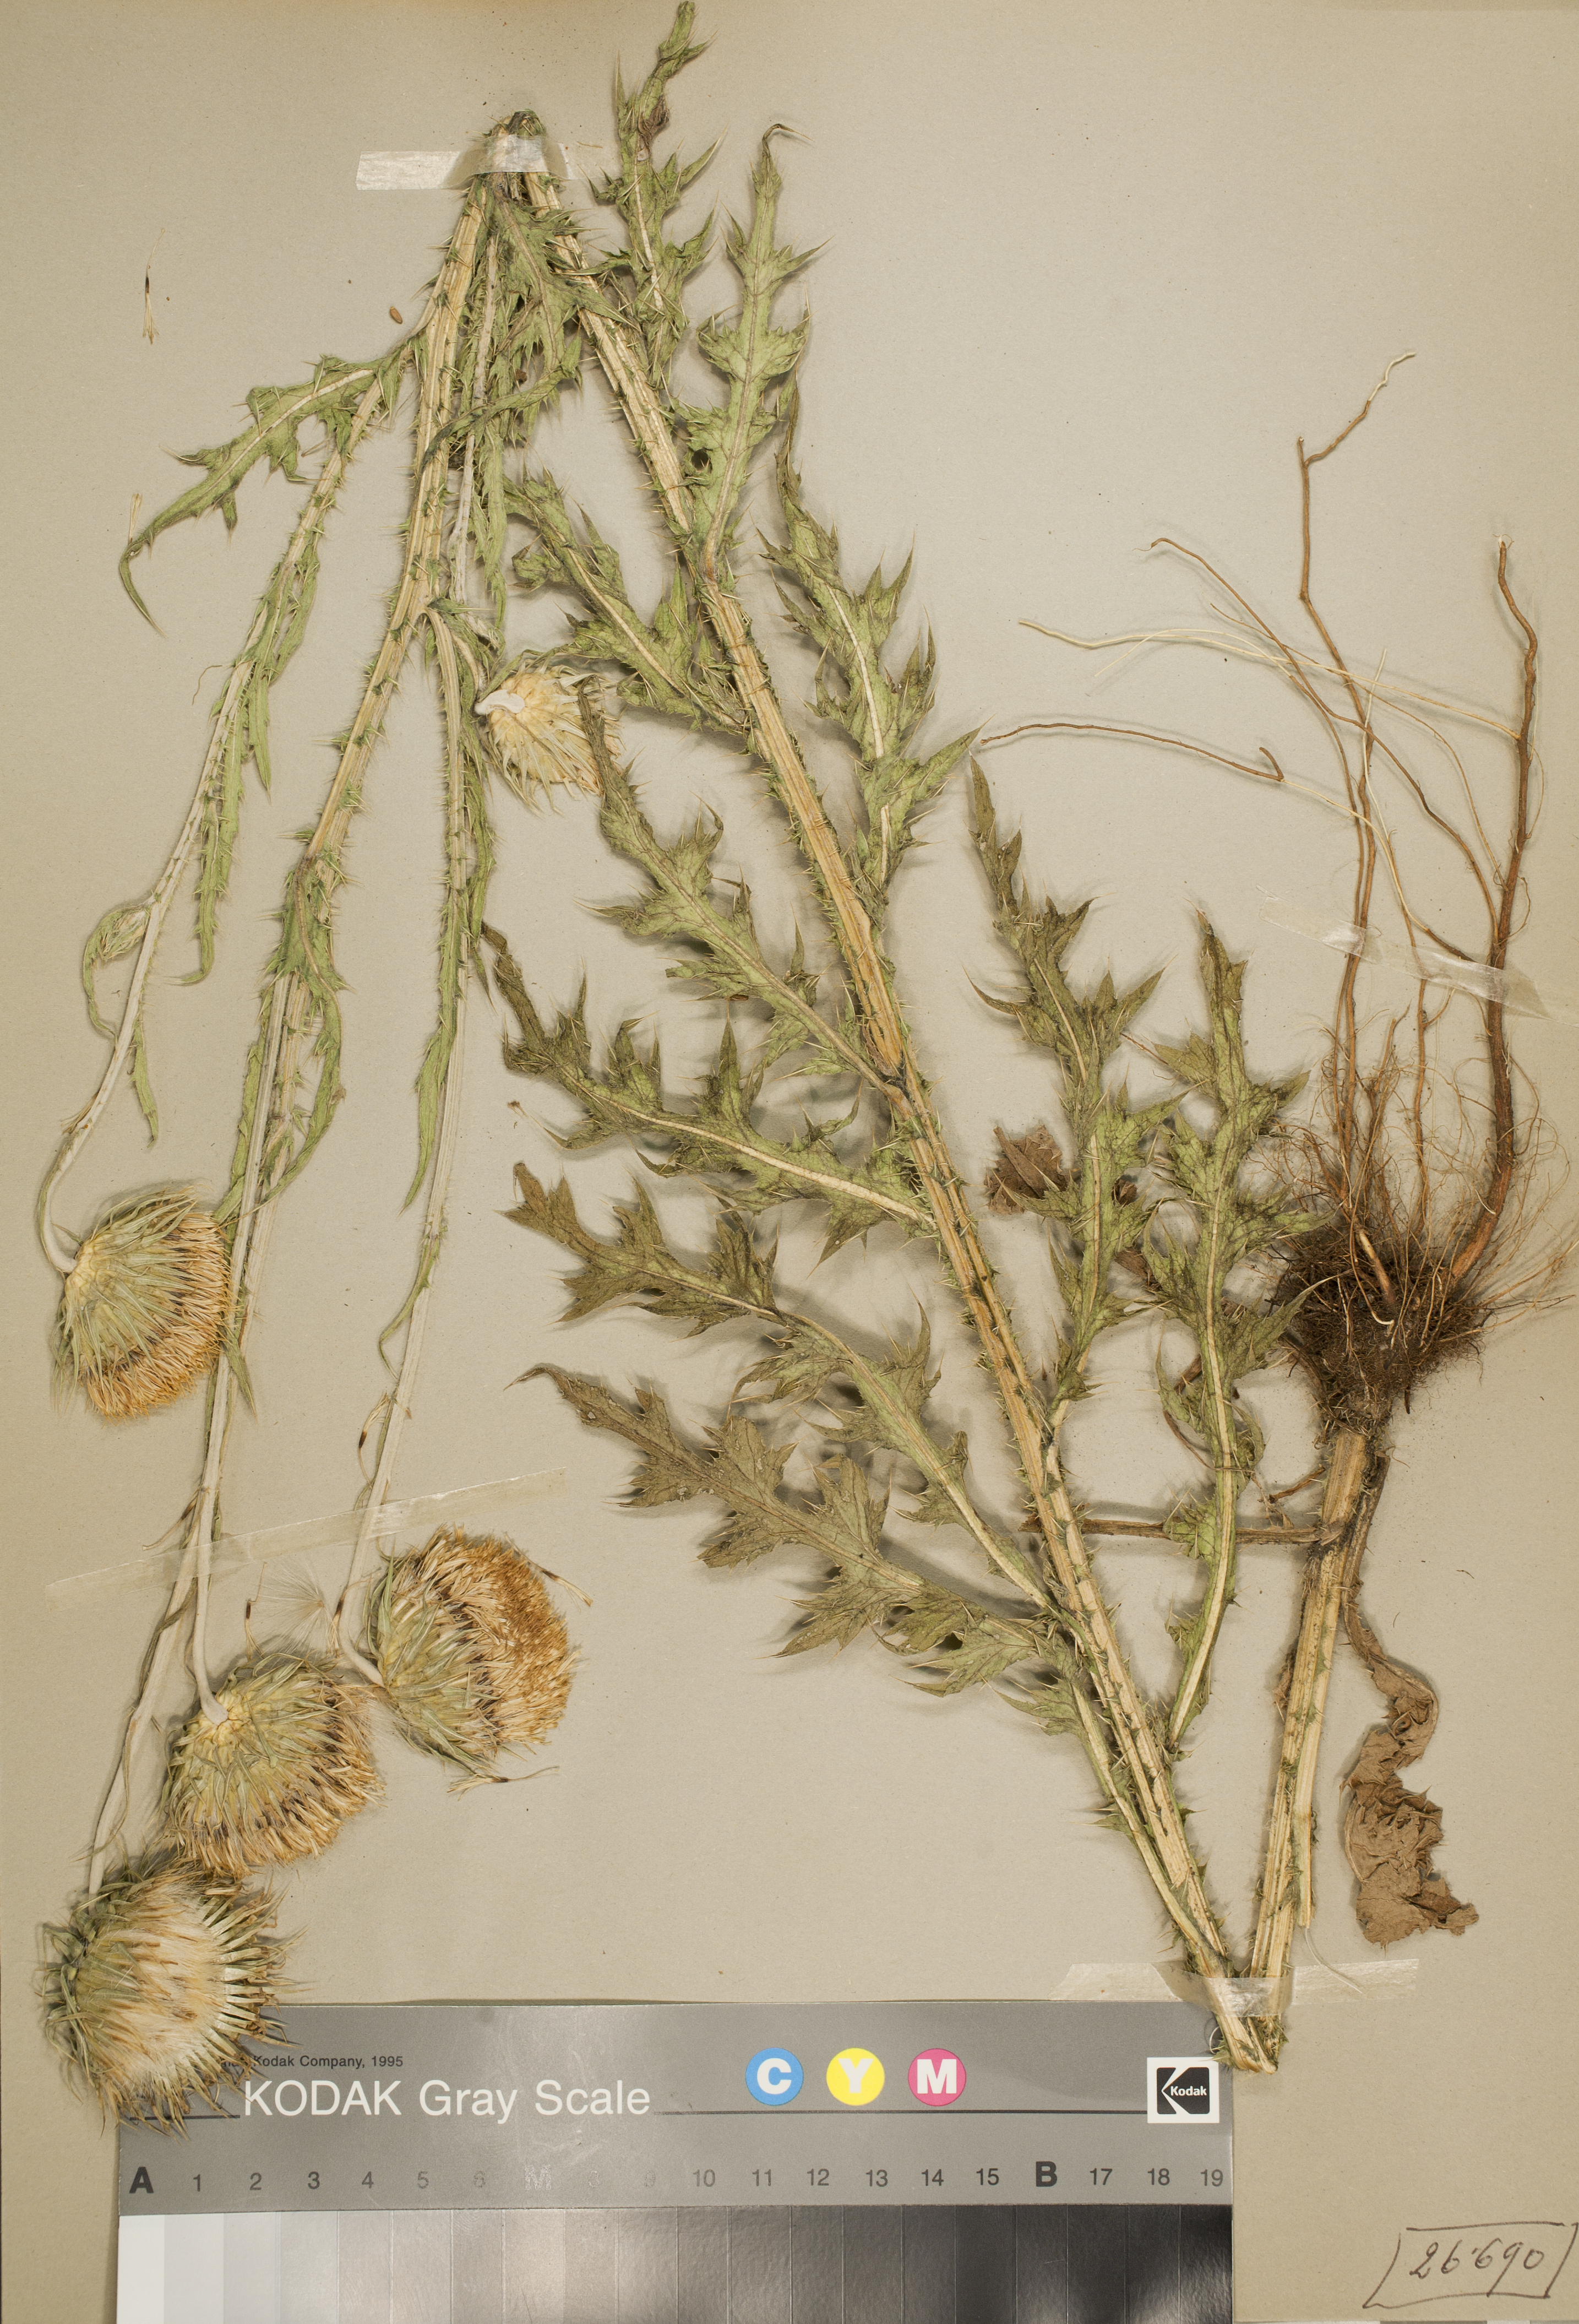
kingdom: Plantae
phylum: Tracheophyta
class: Magnoliopsida
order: Asterales
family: Asteraceae
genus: Carduus
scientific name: Carduus nutans
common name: Musk thistle
